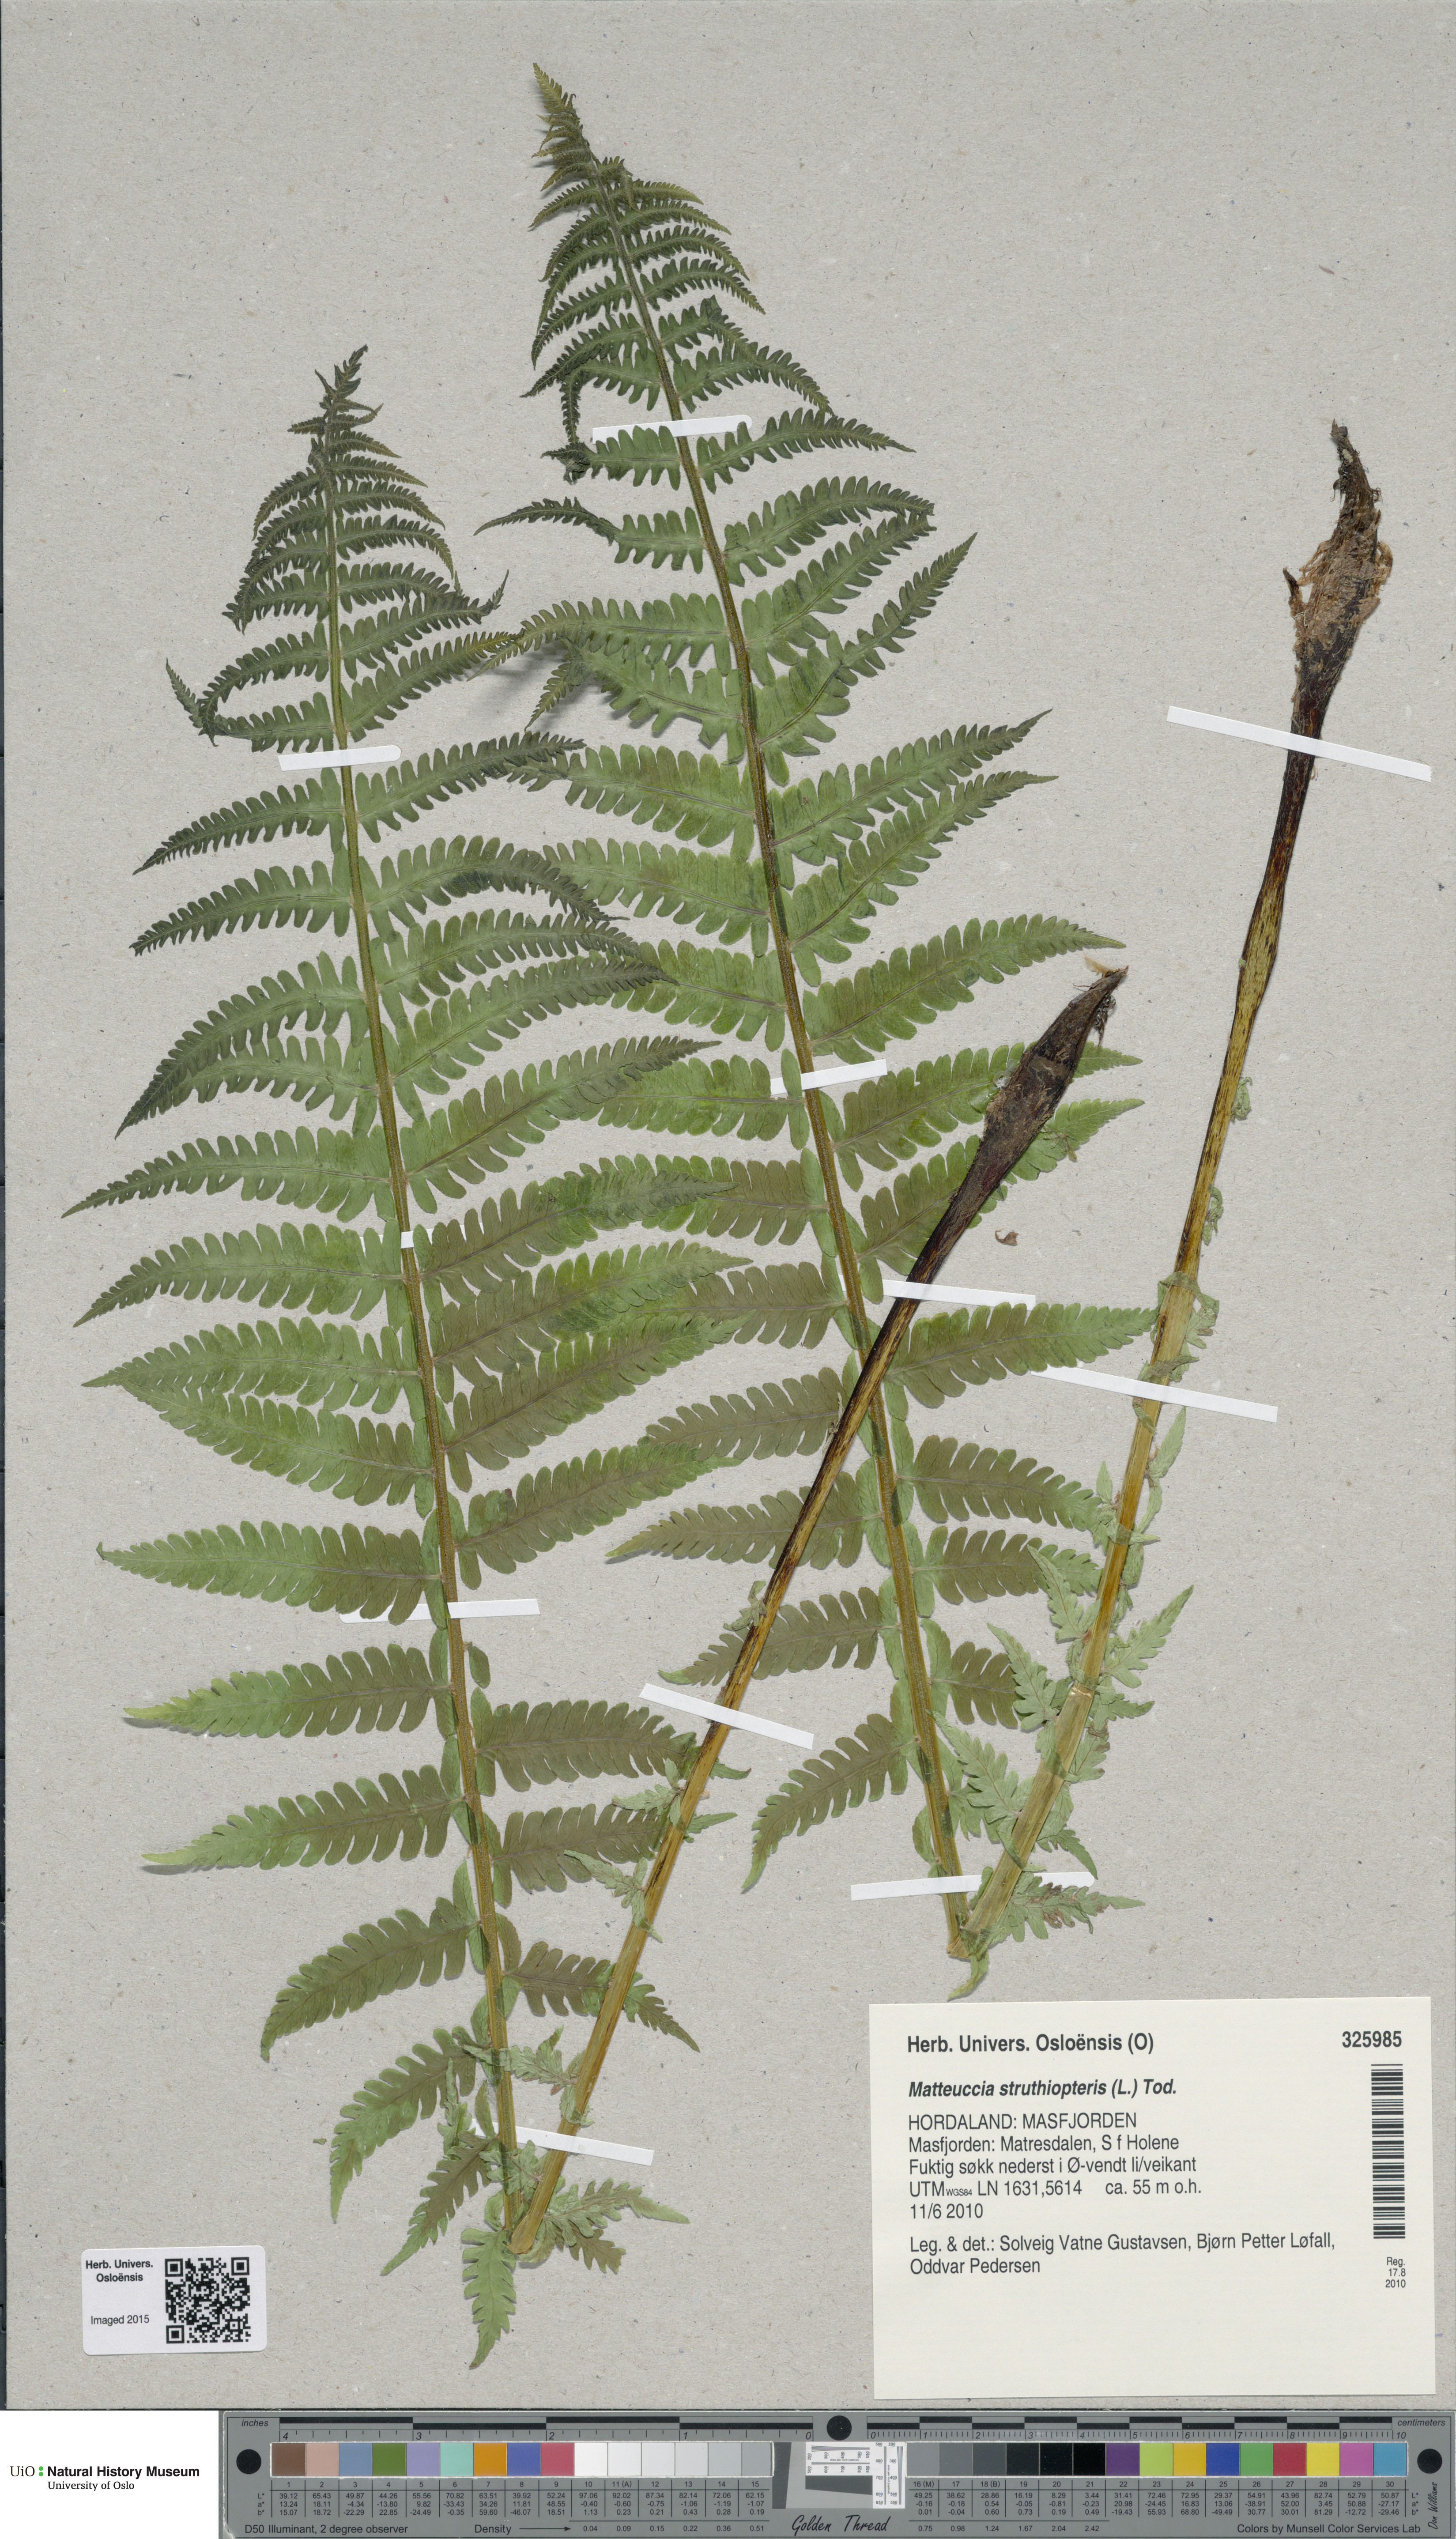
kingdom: Plantae
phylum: Tracheophyta
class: Polypodiopsida
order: Polypodiales
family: Onocleaceae
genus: Matteuccia
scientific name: Matteuccia struthiopteris
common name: Ostrich fern
